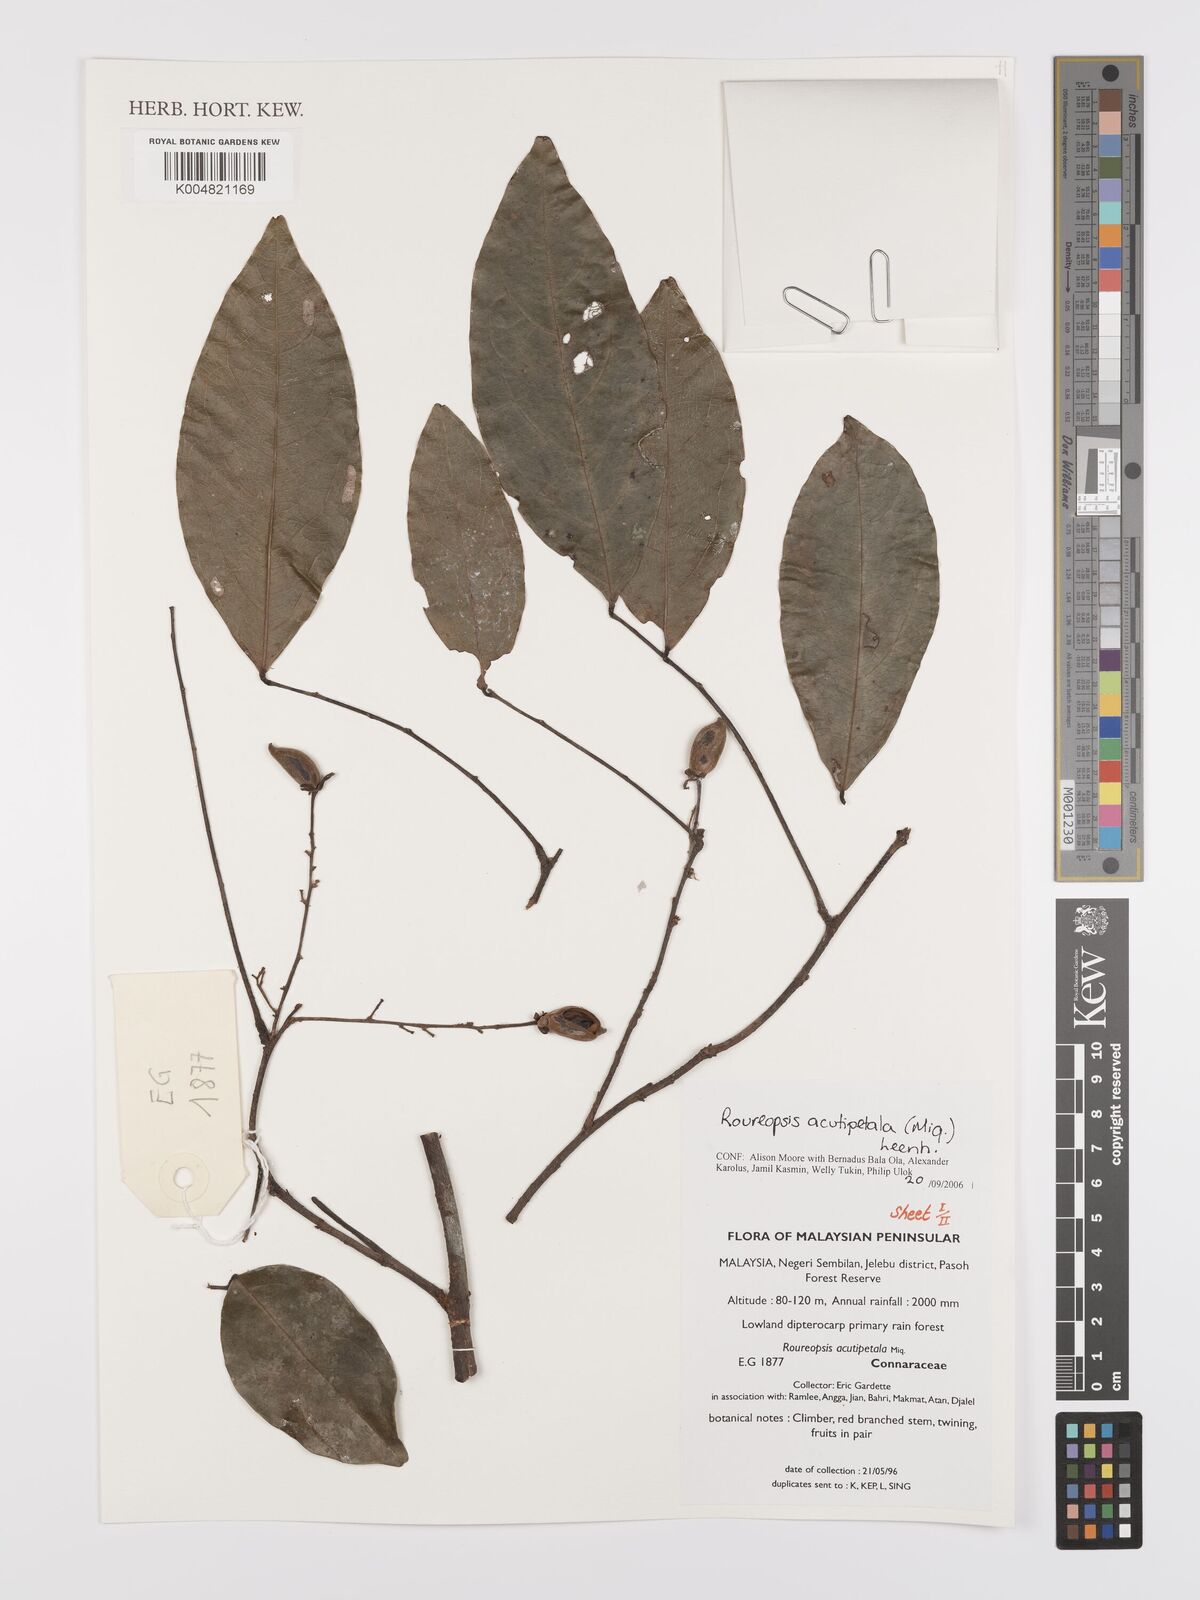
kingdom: Plantae
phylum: Tracheophyta
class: Magnoliopsida
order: Oxalidales
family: Connaraceae
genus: Rourea
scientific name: Rourea acutipetala
